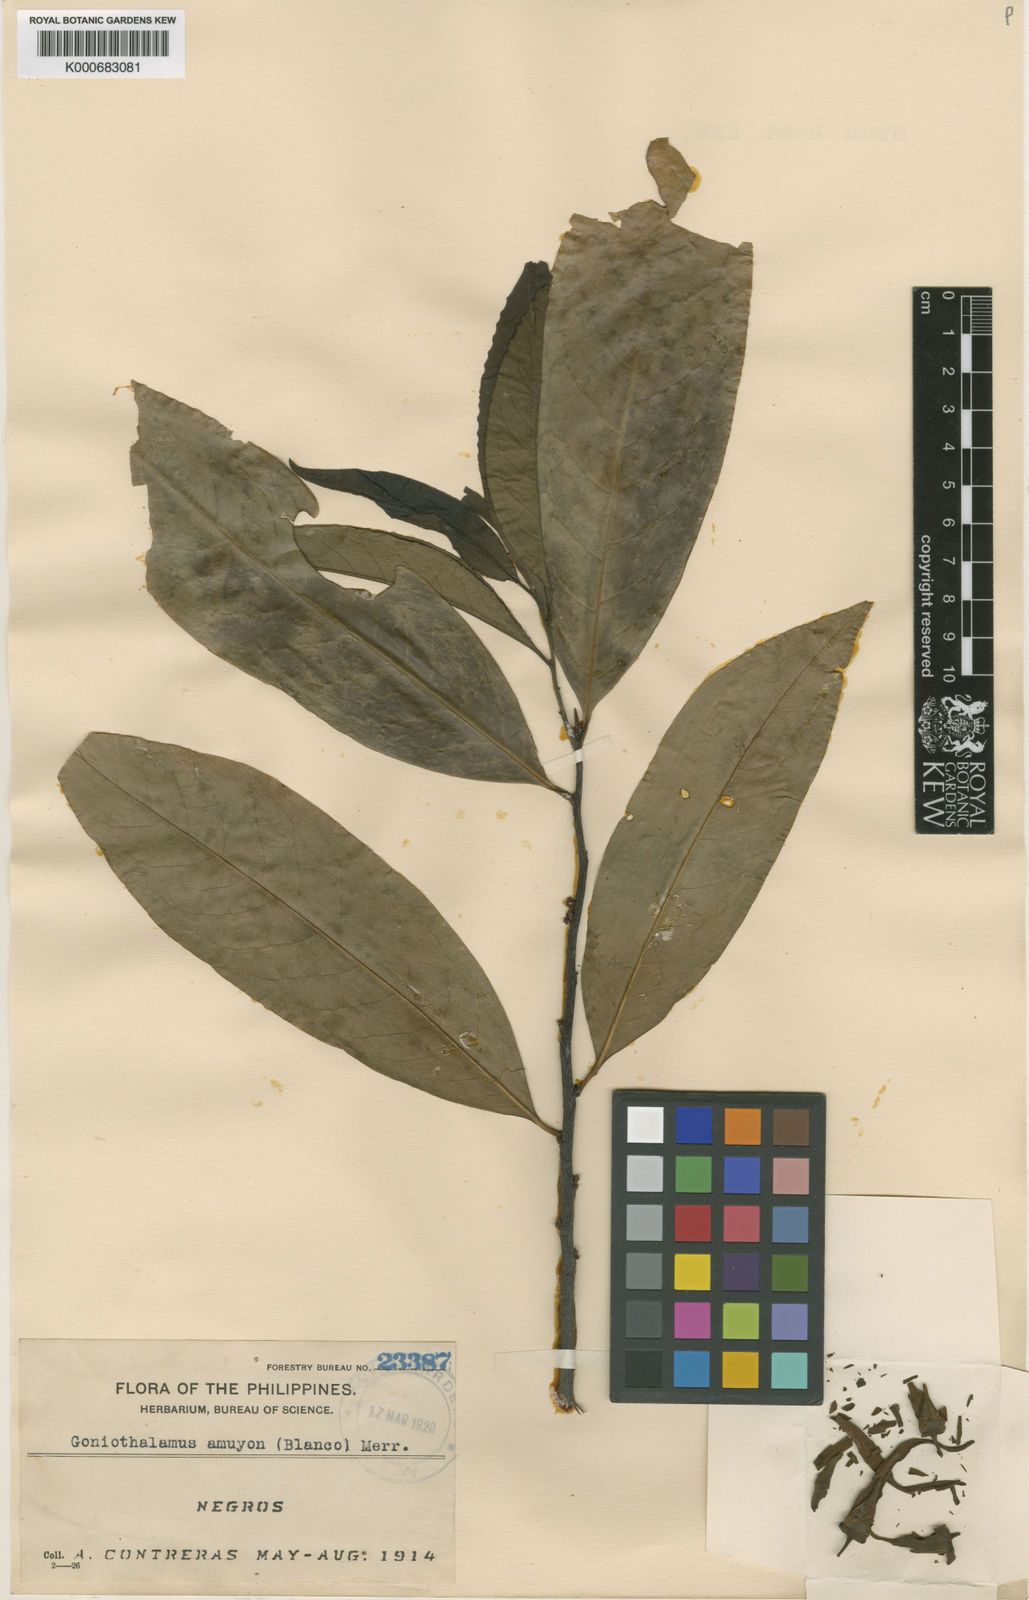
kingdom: Plantae
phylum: Tracheophyta
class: Magnoliopsida
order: Magnoliales
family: Annonaceae
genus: Goniothalamus
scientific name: Goniothalamus amuyon
